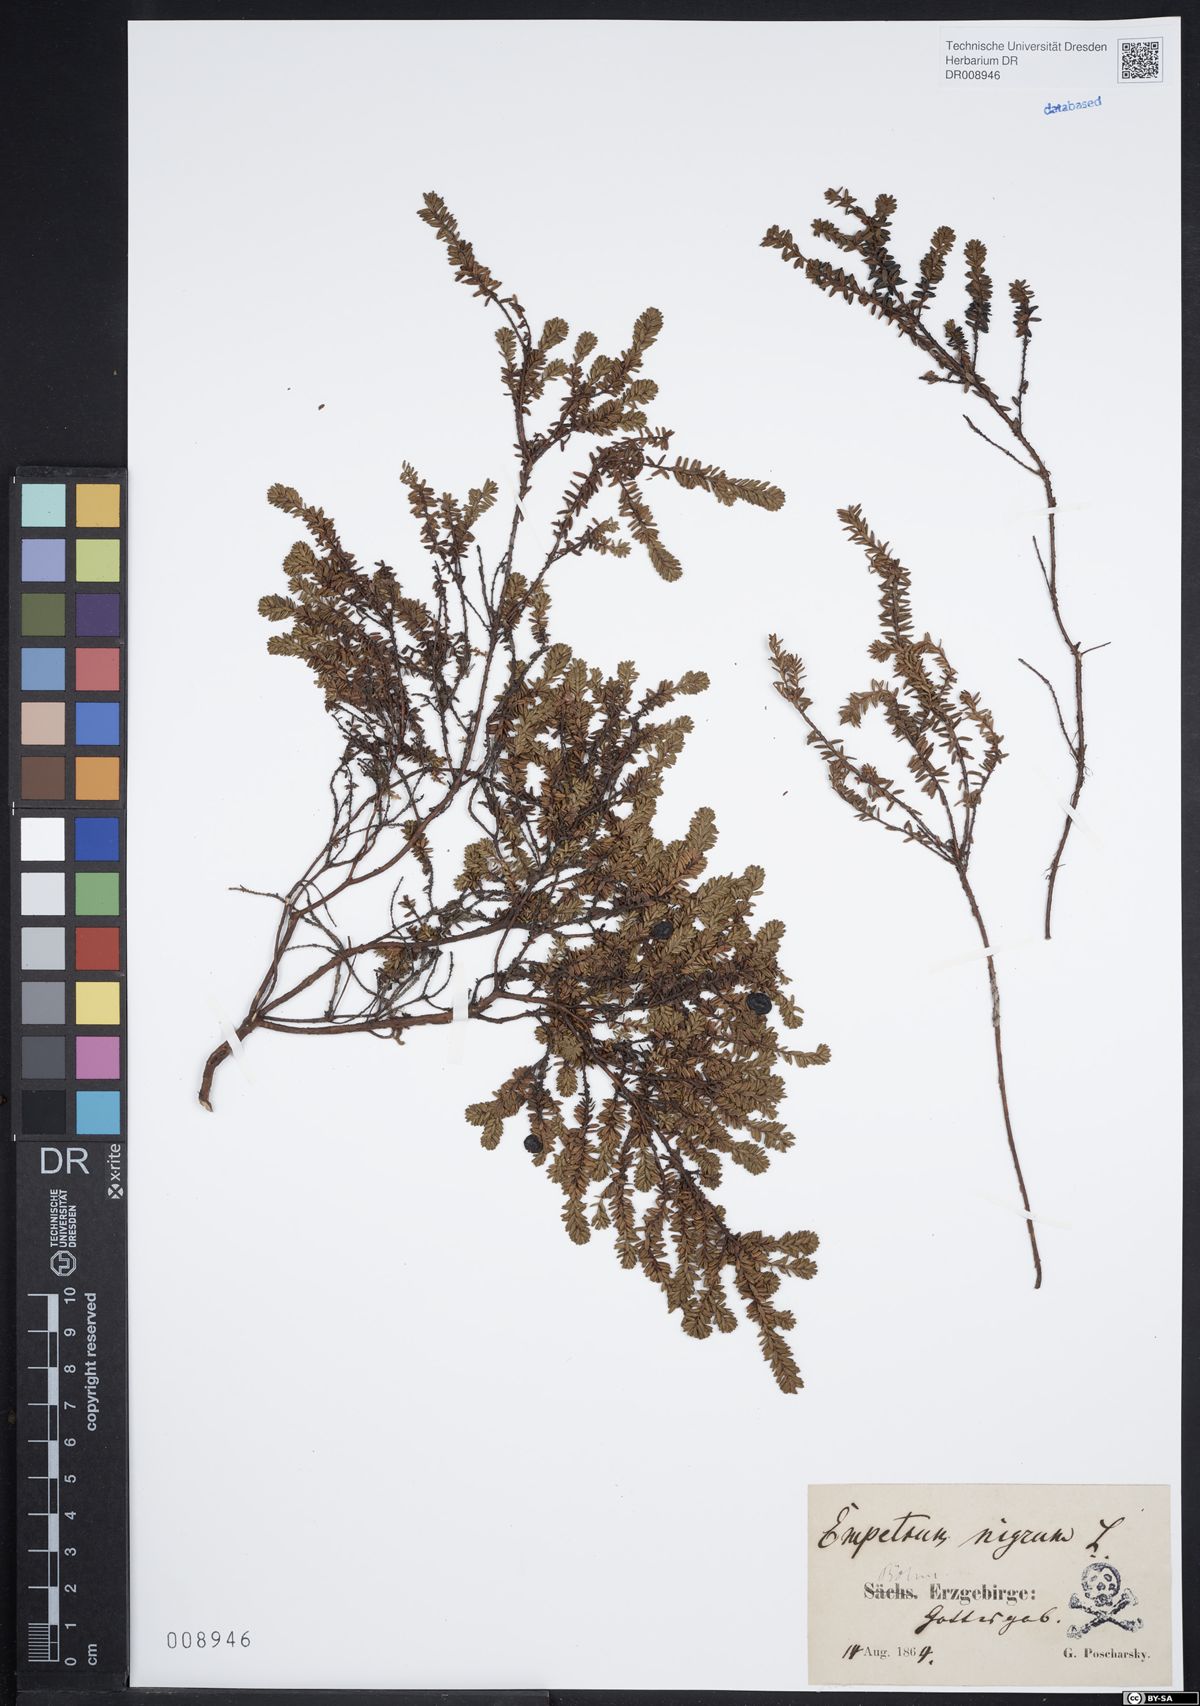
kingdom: Plantae
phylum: Tracheophyta
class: Magnoliopsida
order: Ericales
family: Ericaceae
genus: Empetrum
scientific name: Empetrum nigrum
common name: Black crowberry
